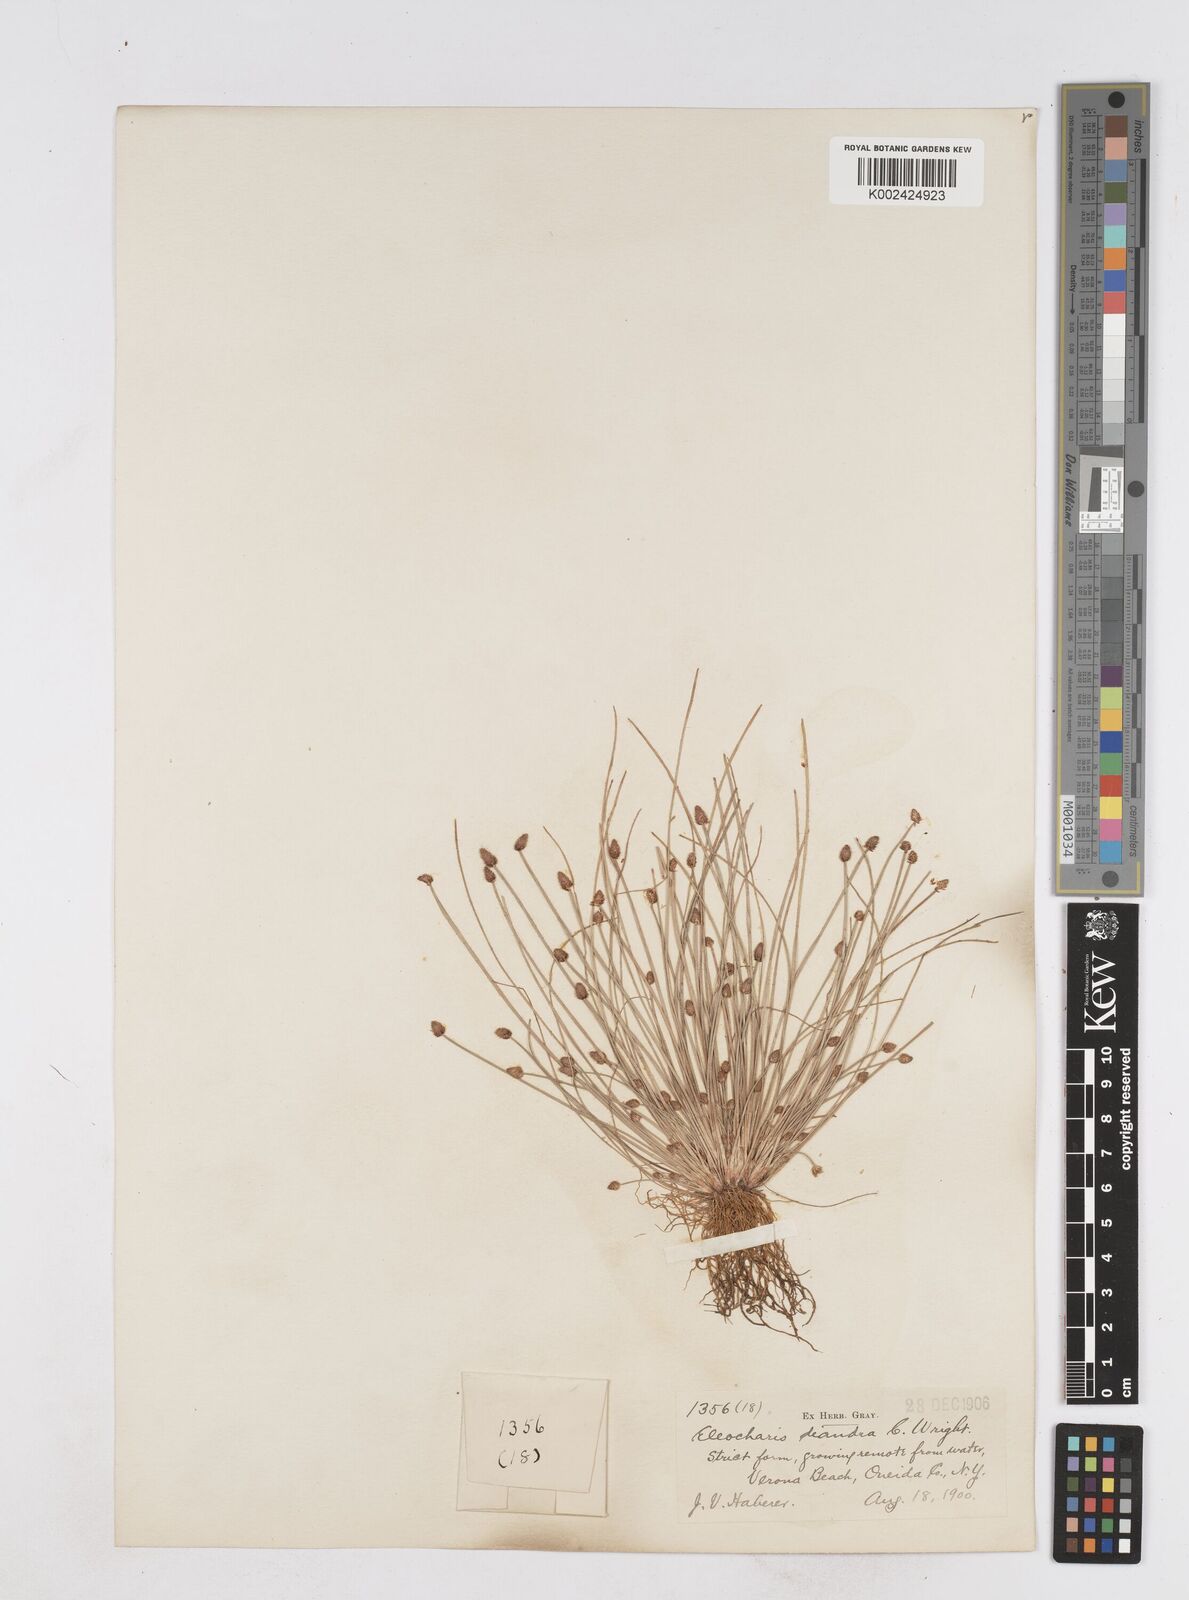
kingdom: Plantae
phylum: Tracheophyta
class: Liliopsida
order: Poales
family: Cyperaceae
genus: Eleocharis
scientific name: Eleocharis ovata
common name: Oval spike-rush
